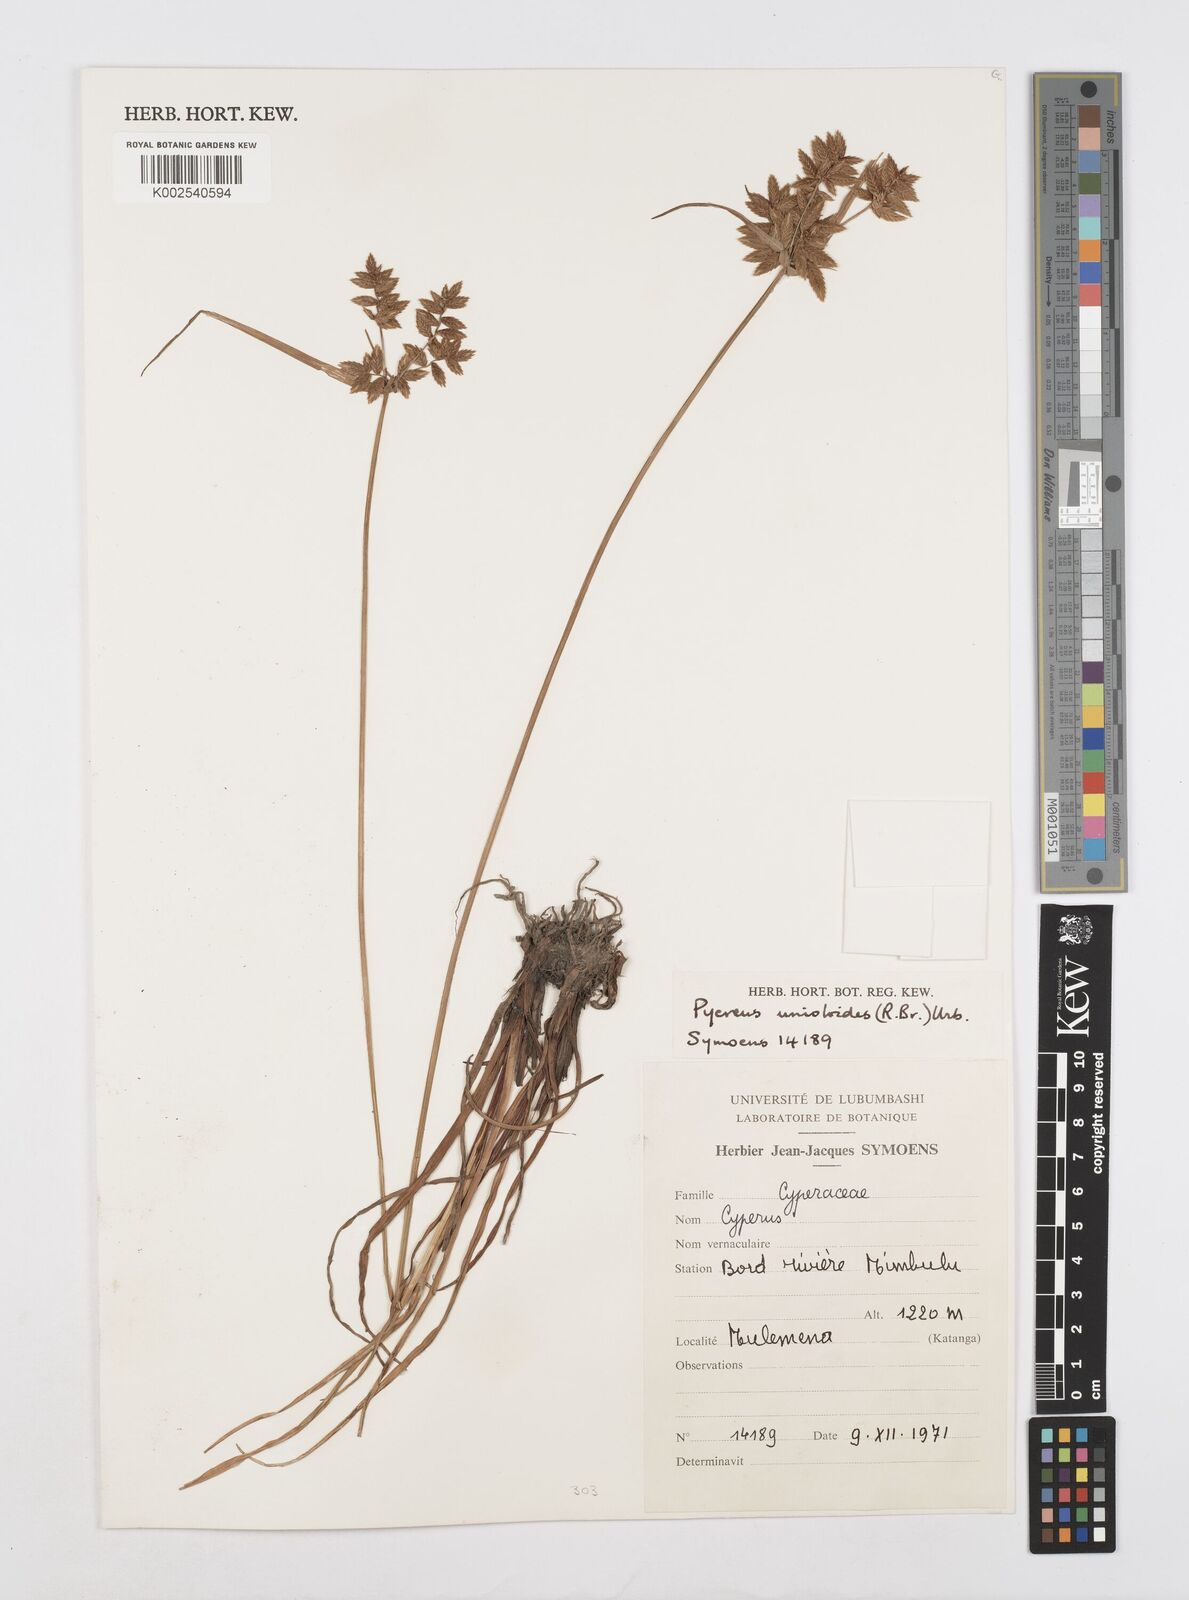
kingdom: Plantae
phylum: Tracheophyta
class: Liliopsida
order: Poales
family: Cyperaceae
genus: Cyperus
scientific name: Cyperus unioloides
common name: Uniola flatsedge
